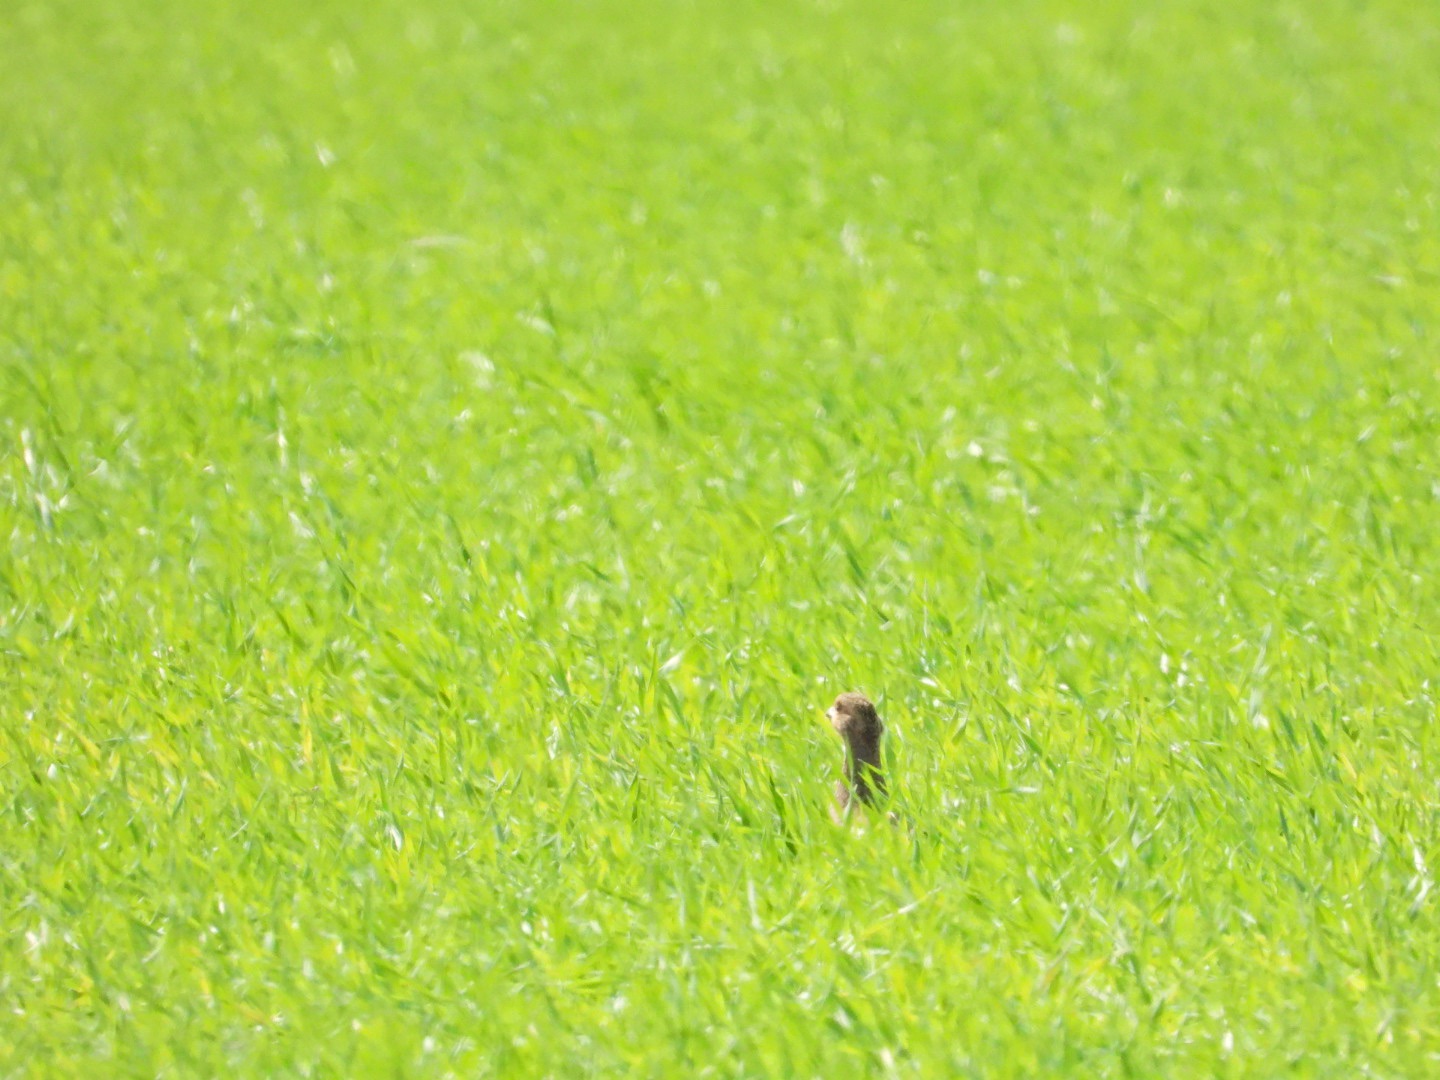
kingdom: Animalia
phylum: Chordata
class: Aves
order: Galliformes
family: Phasianidae
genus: Perdix
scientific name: Perdix perdix
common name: Agerhøne
